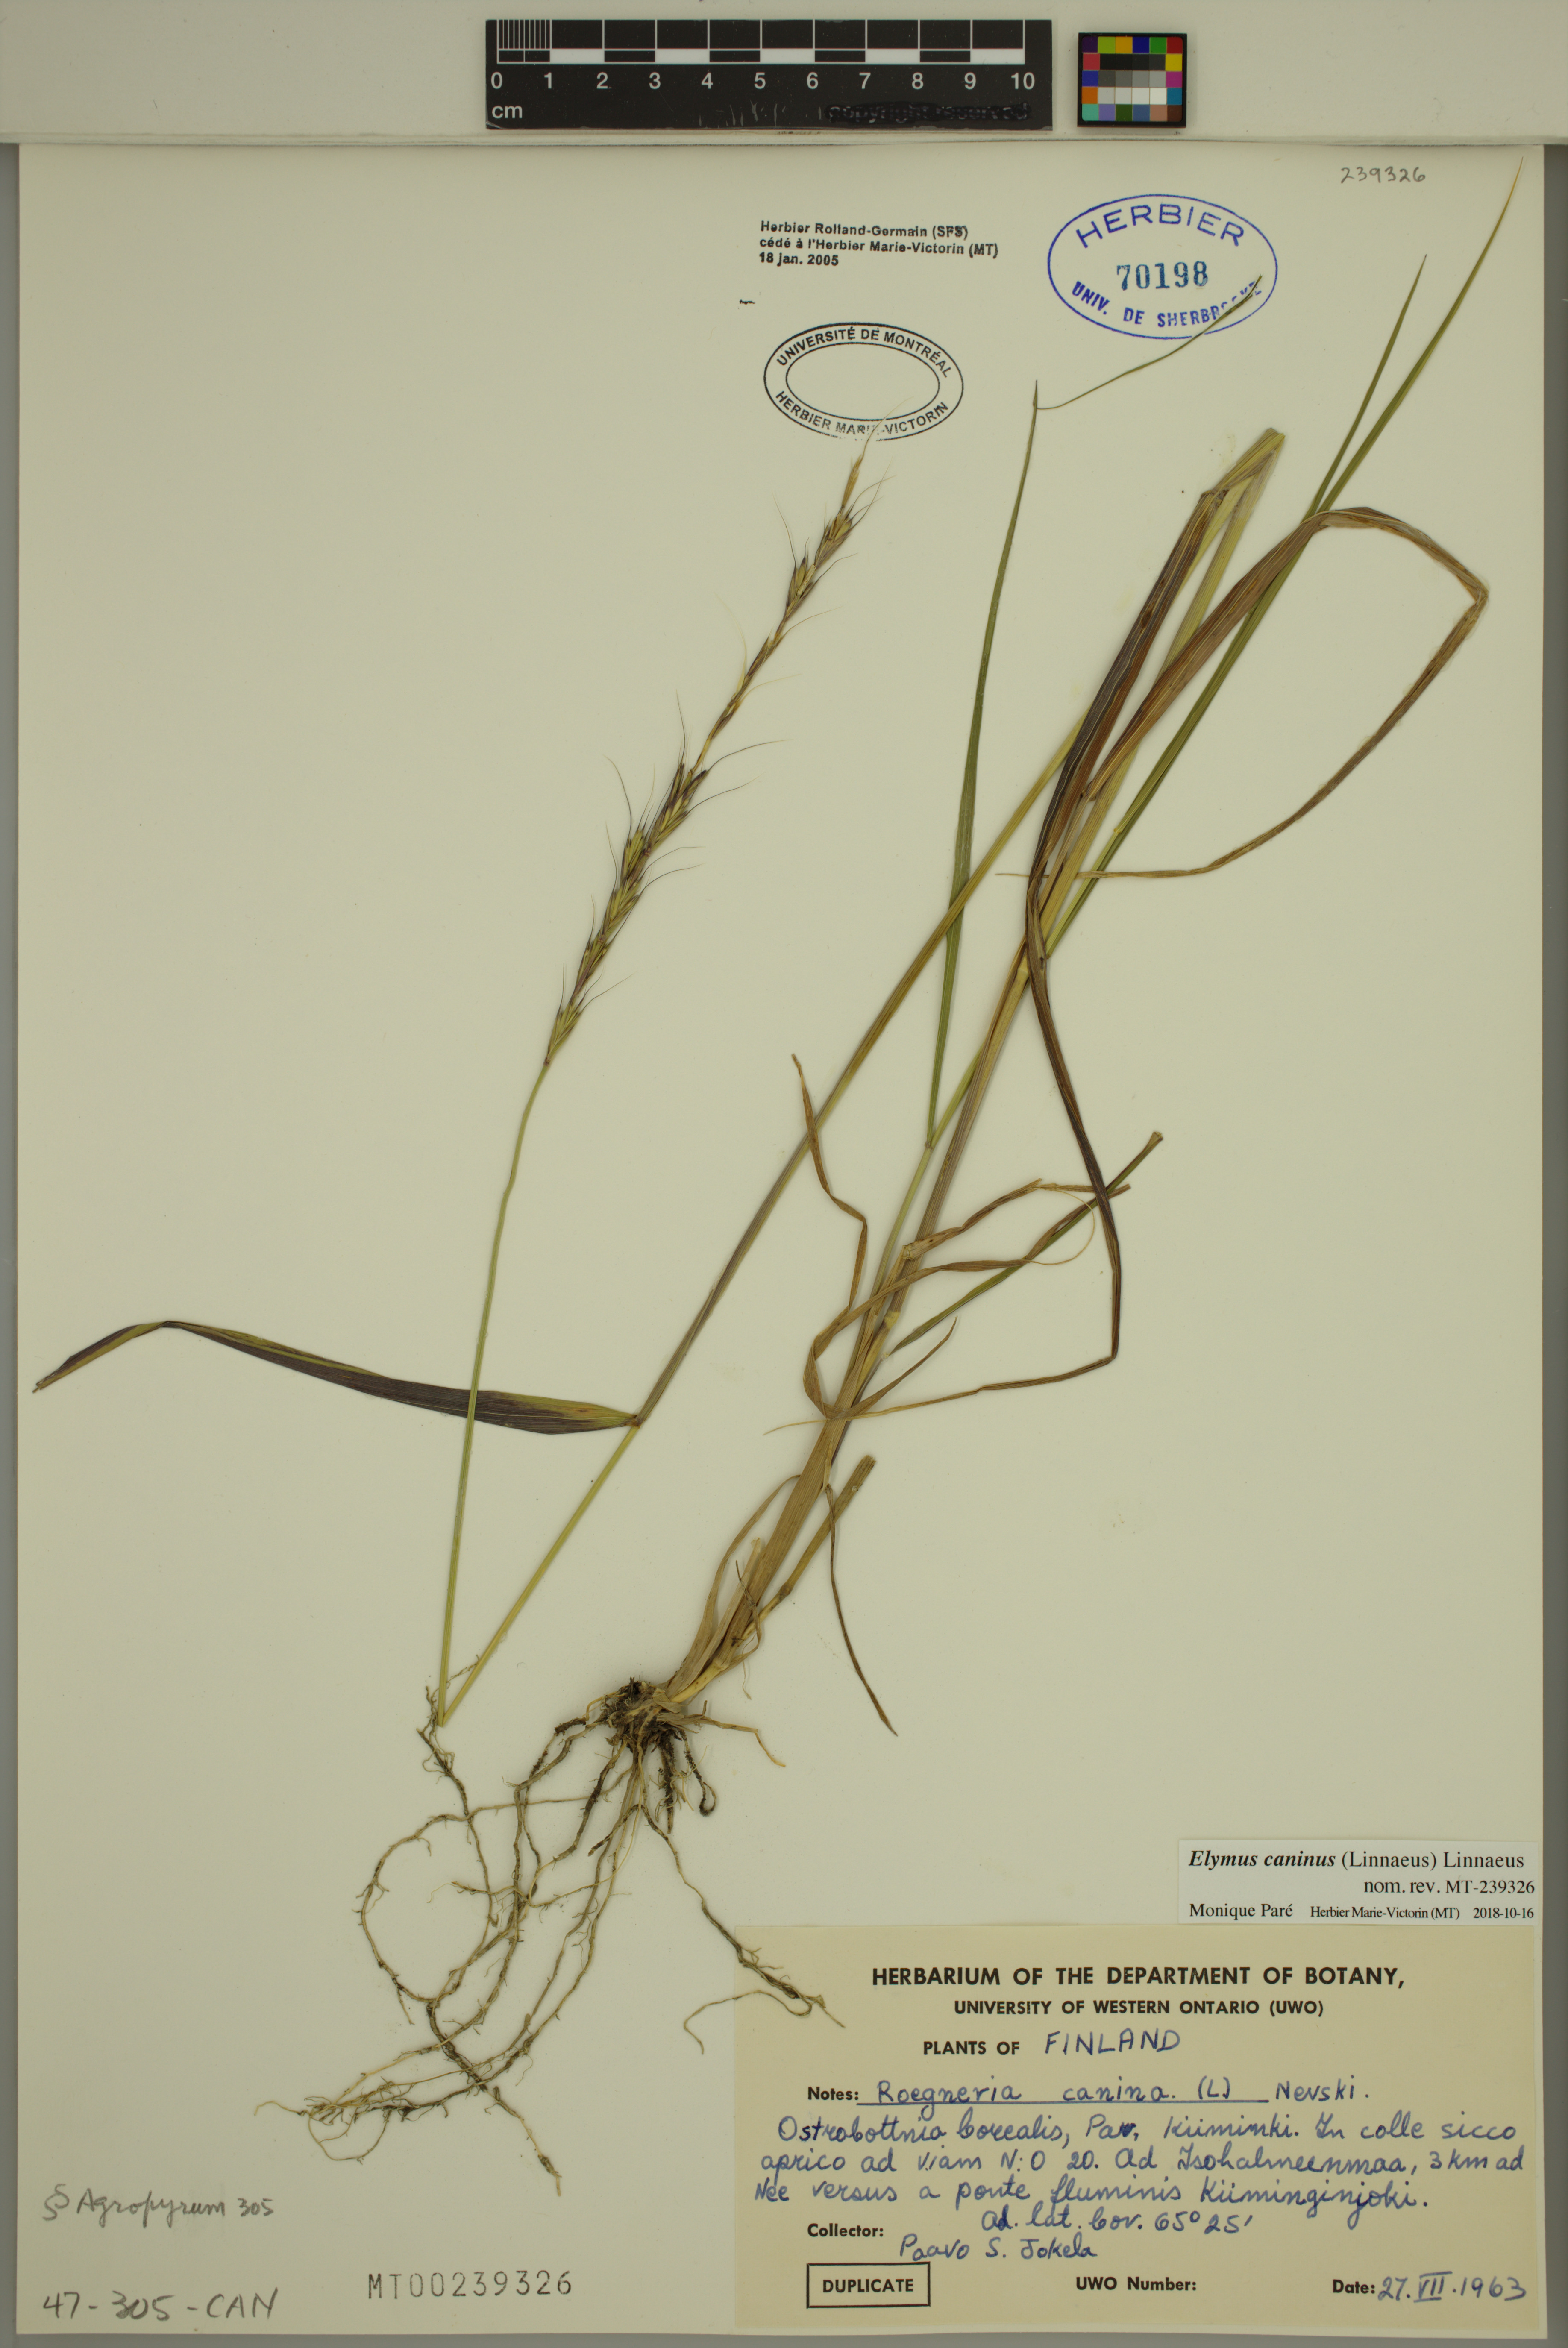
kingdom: Plantae
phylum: Tracheophyta
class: Liliopsida
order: Poales
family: Poaceae
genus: Elymus
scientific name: Elymus caninus
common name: Bearded couch
